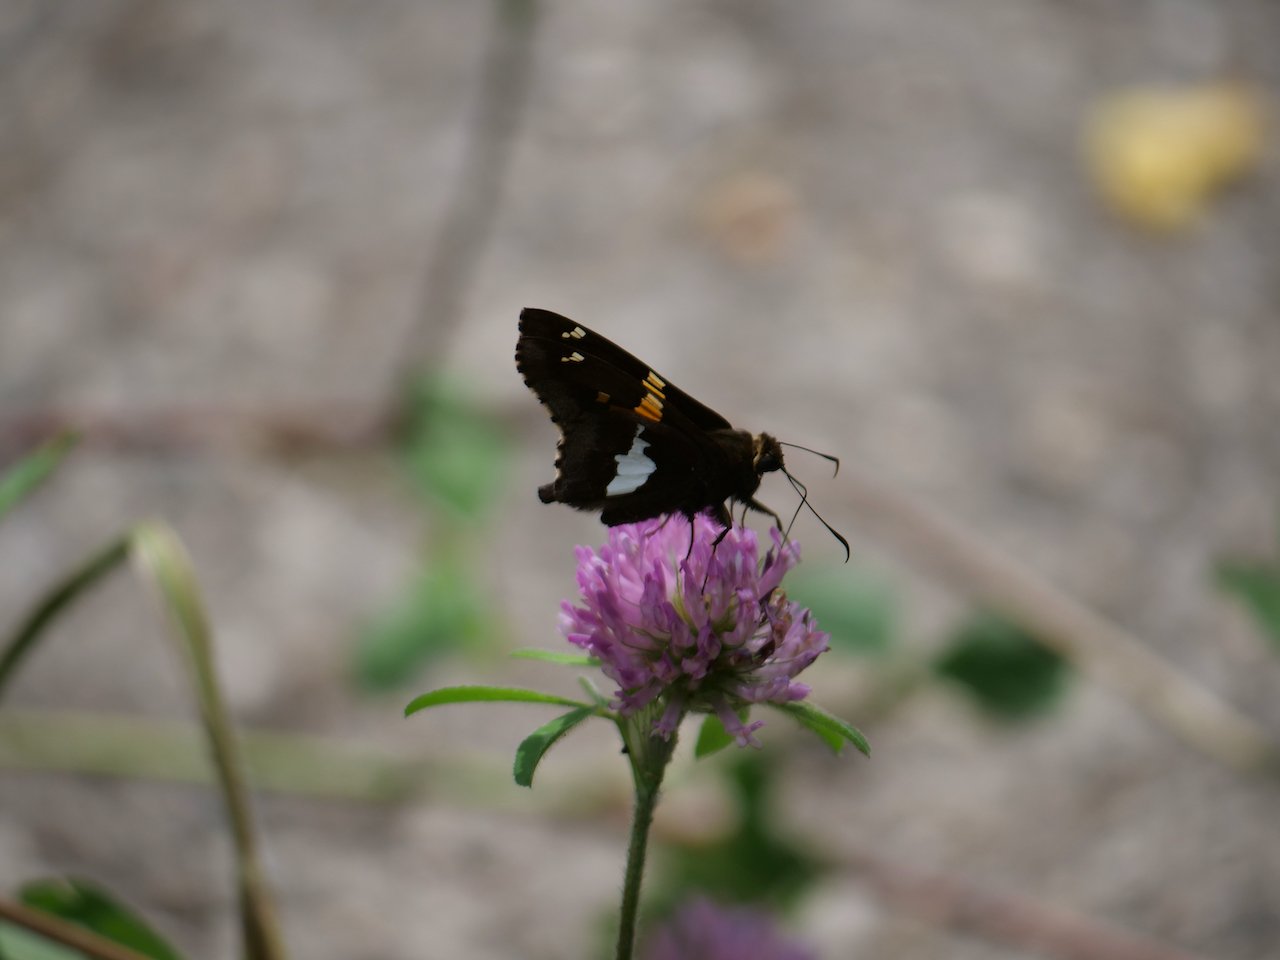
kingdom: Animalia
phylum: Arthropoda
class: Insecta
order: Lepidoptera
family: Hesperiidae
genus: Epargyreus
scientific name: Epargyreus clarus
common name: Silver-spotted Skipper
